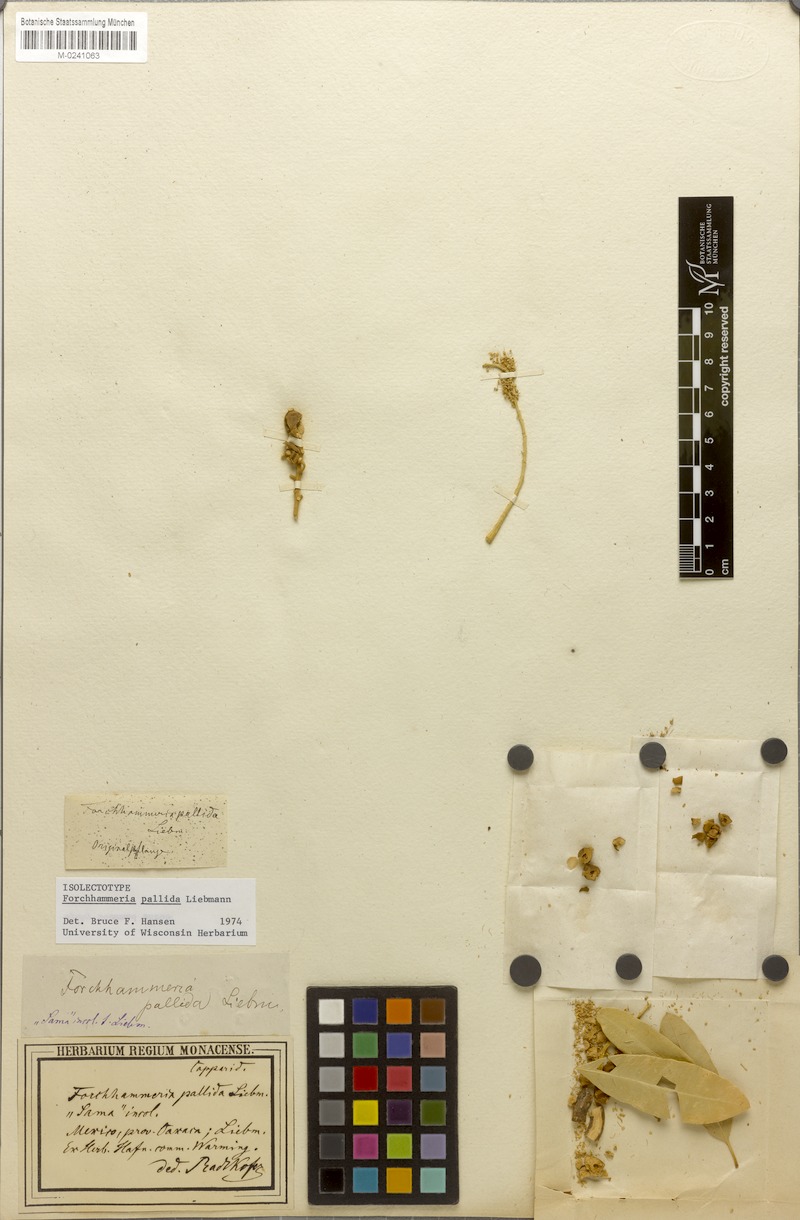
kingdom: Plantae
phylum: Tracheophyta
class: Magnoliopsida
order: Brassicales
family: Stixaceae
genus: Forchhammeria
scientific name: Forchhammeria pallida
